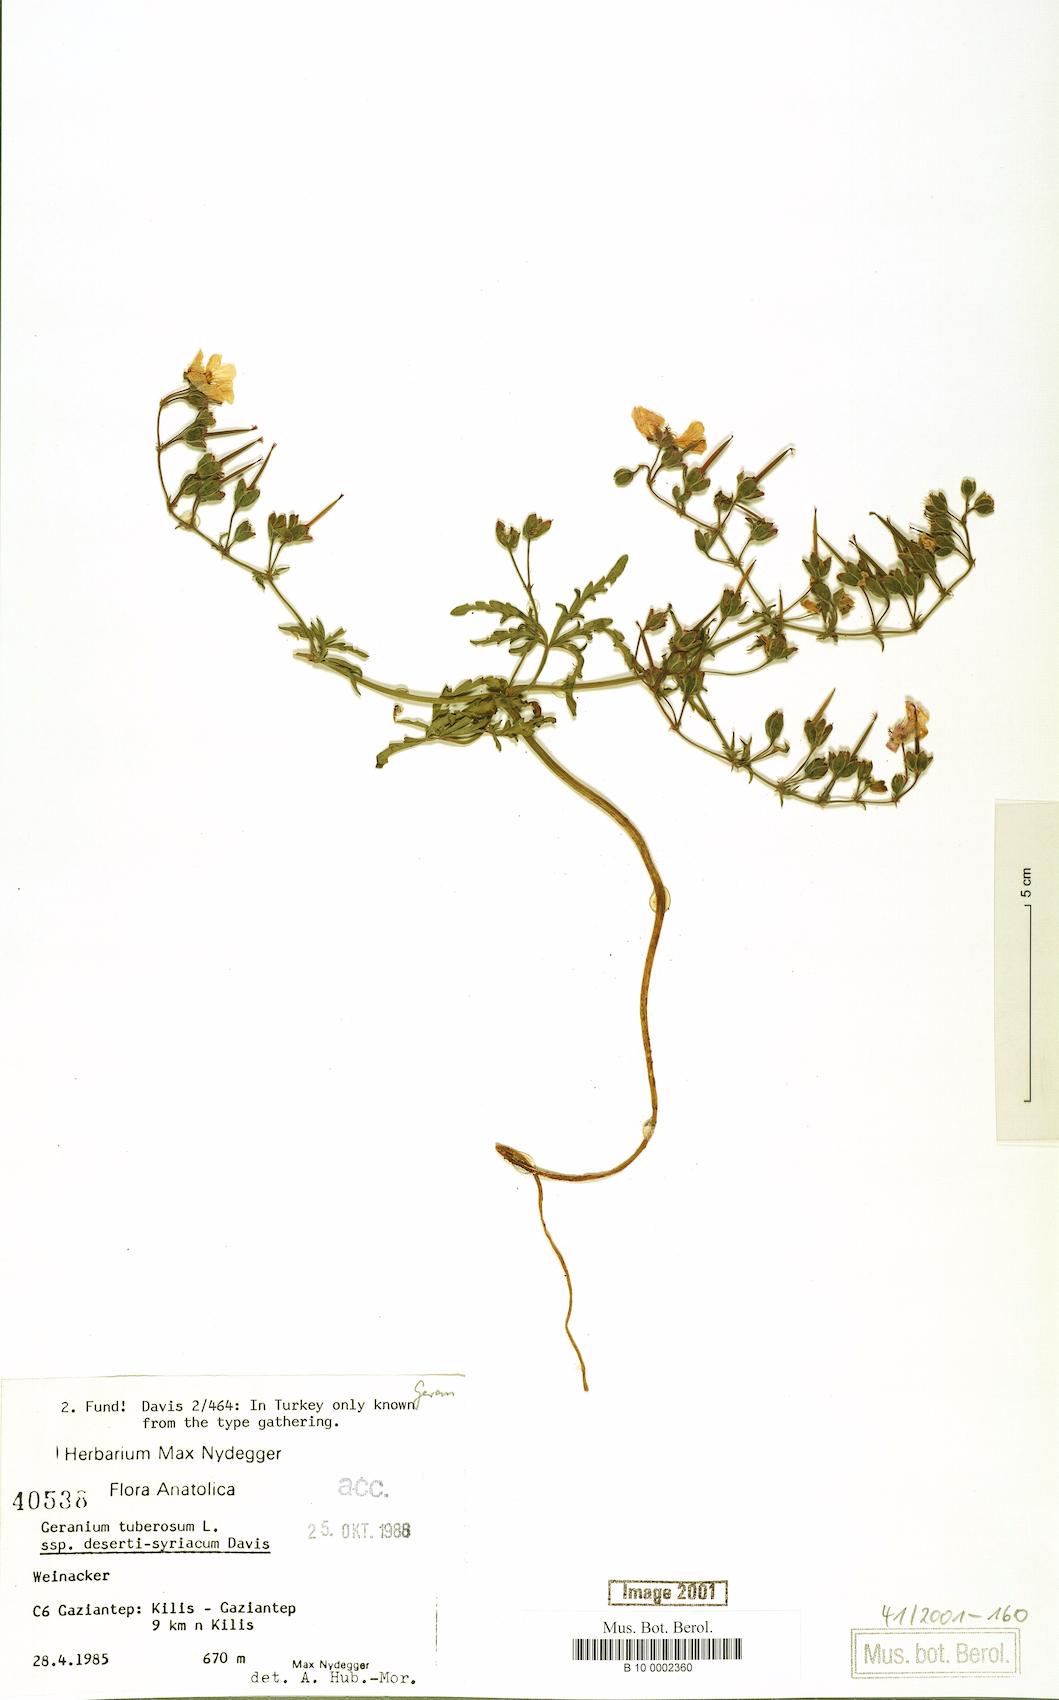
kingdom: Plantae
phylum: Tracheophyta
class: Magnoliopsida
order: Geraniales
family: Geraniaceae
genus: Geranium
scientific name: Geranium tuberosum
